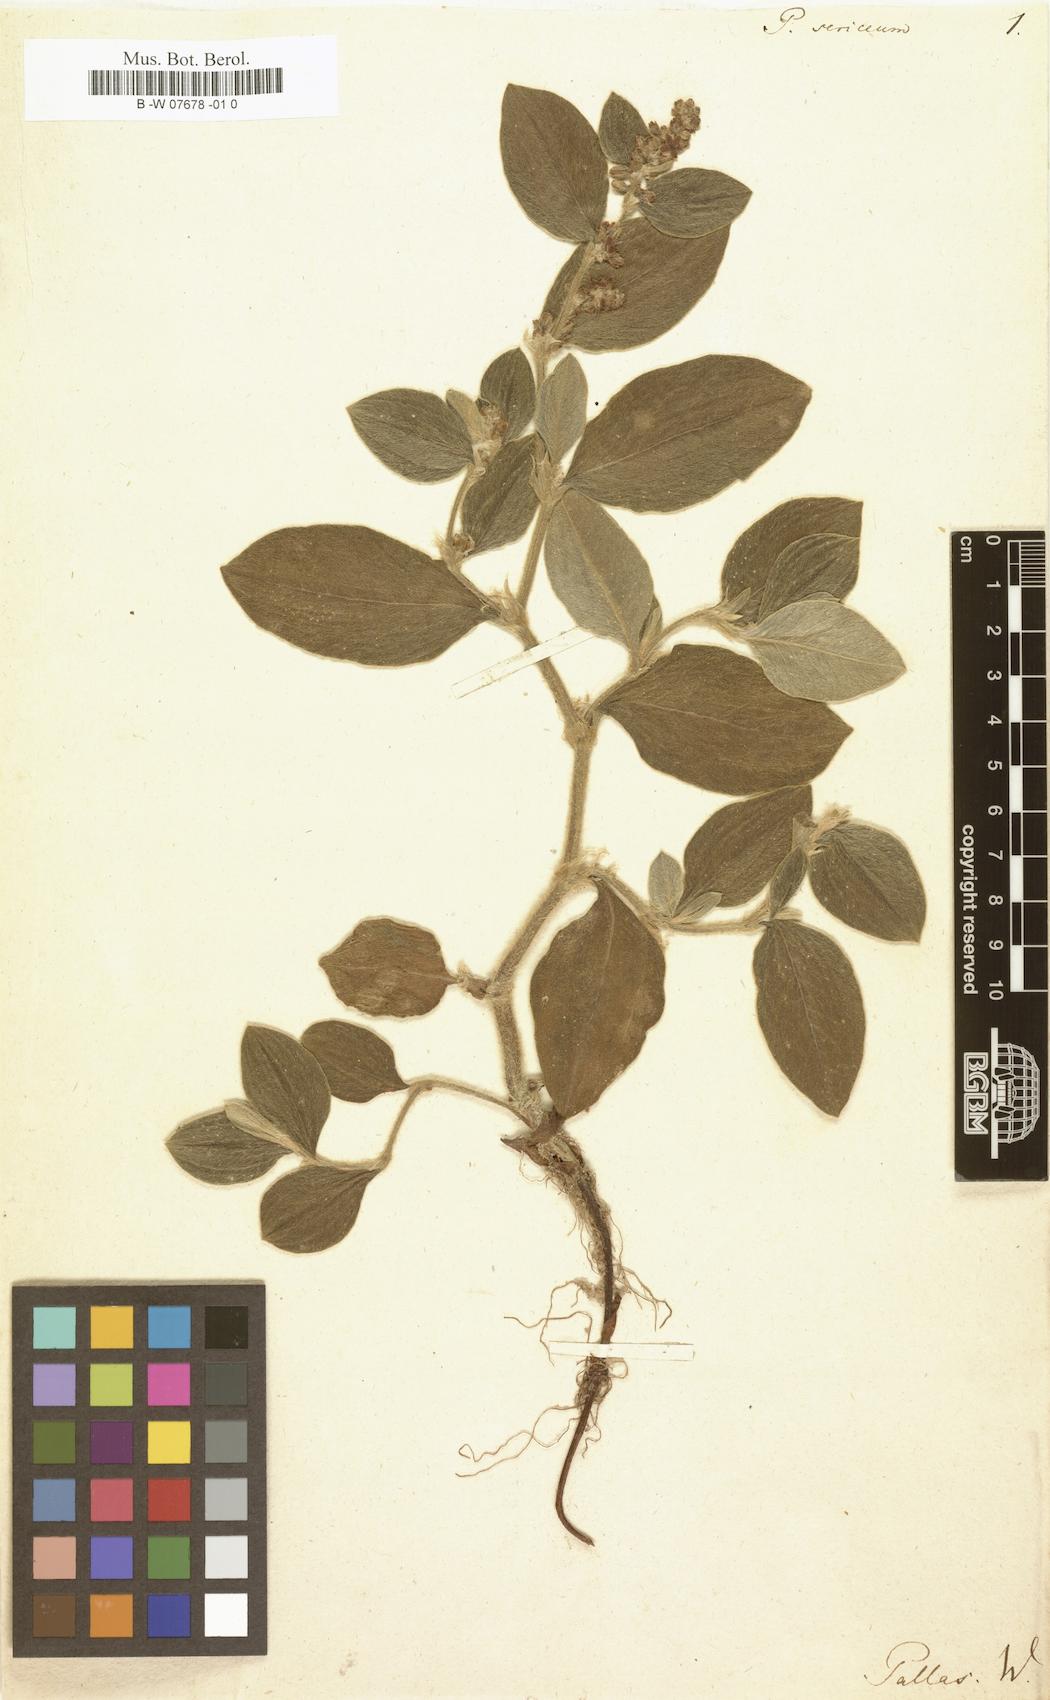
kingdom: Plantae
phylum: Tracheophyta
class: Magnoliopsida
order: Caryophyllales
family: Polygonaceae
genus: Polygonum
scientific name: Polygonum sericeum
